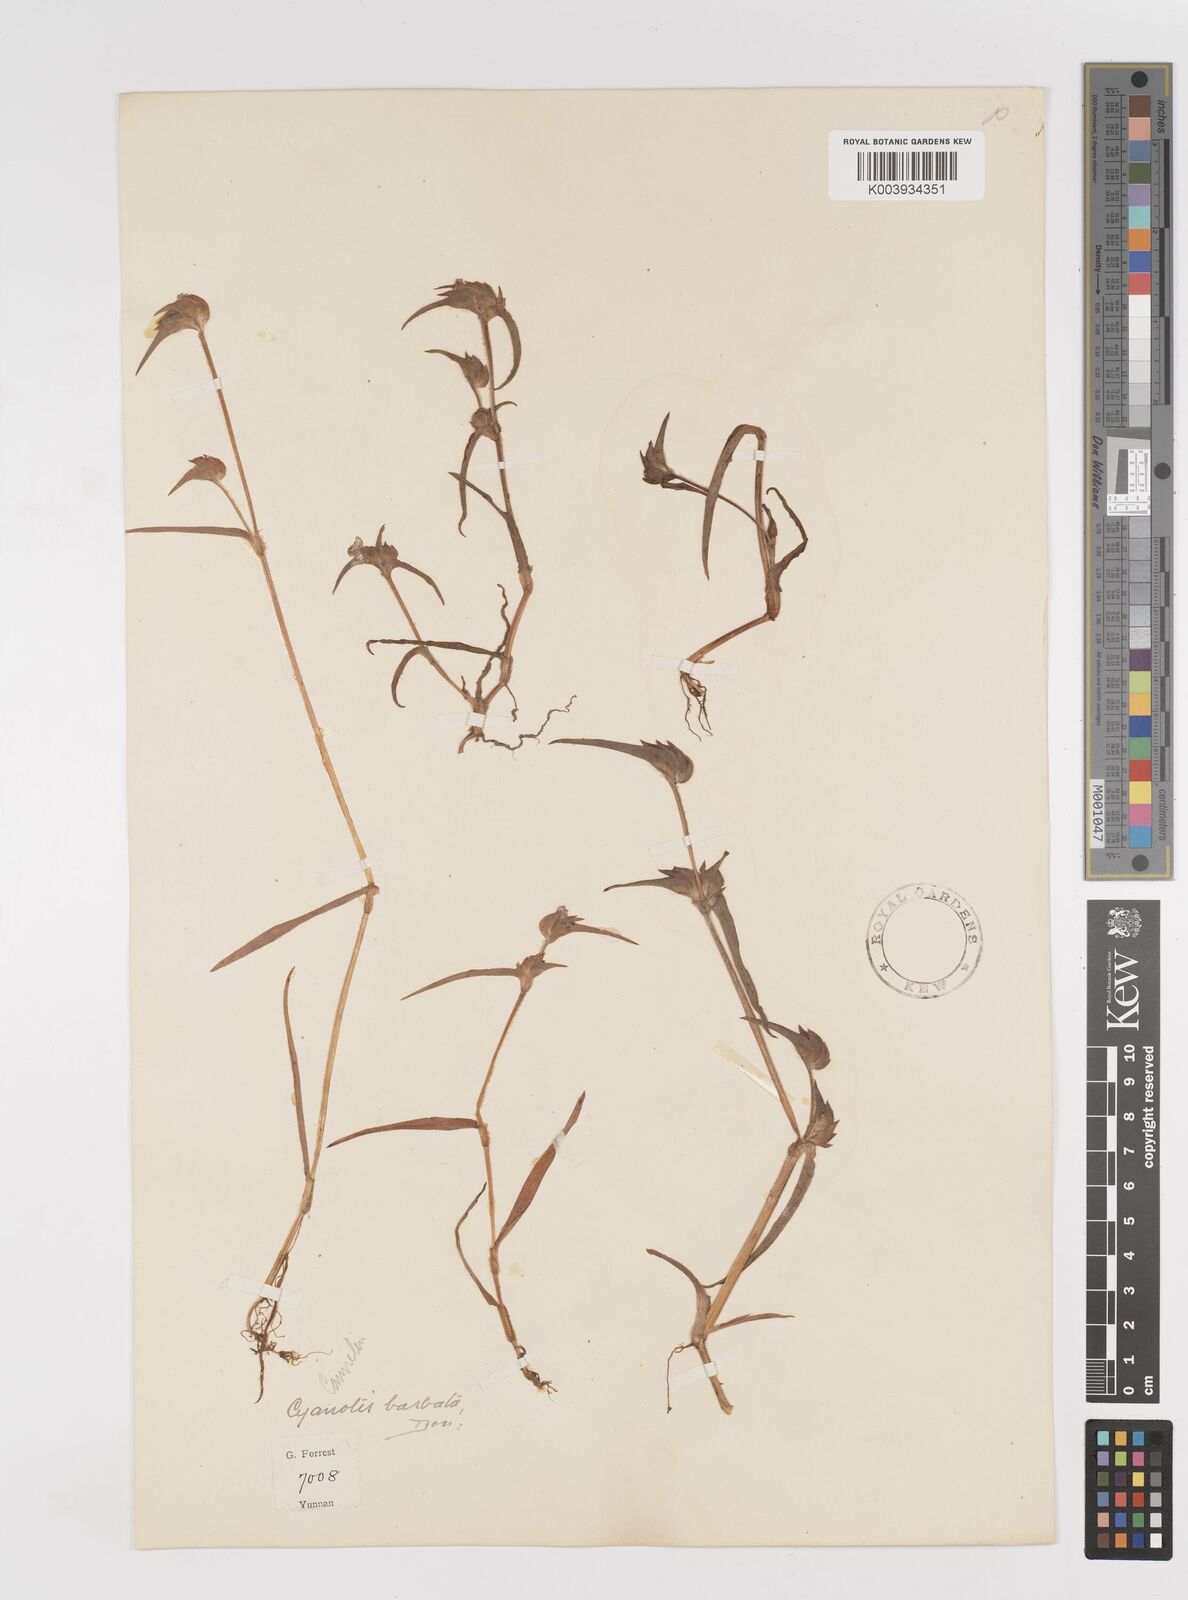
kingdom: Plantae
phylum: Tracheophyta
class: Liliopsida
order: Commelinales
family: Commelinaceae
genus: Cyanotis
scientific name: Cyanotis vaga
